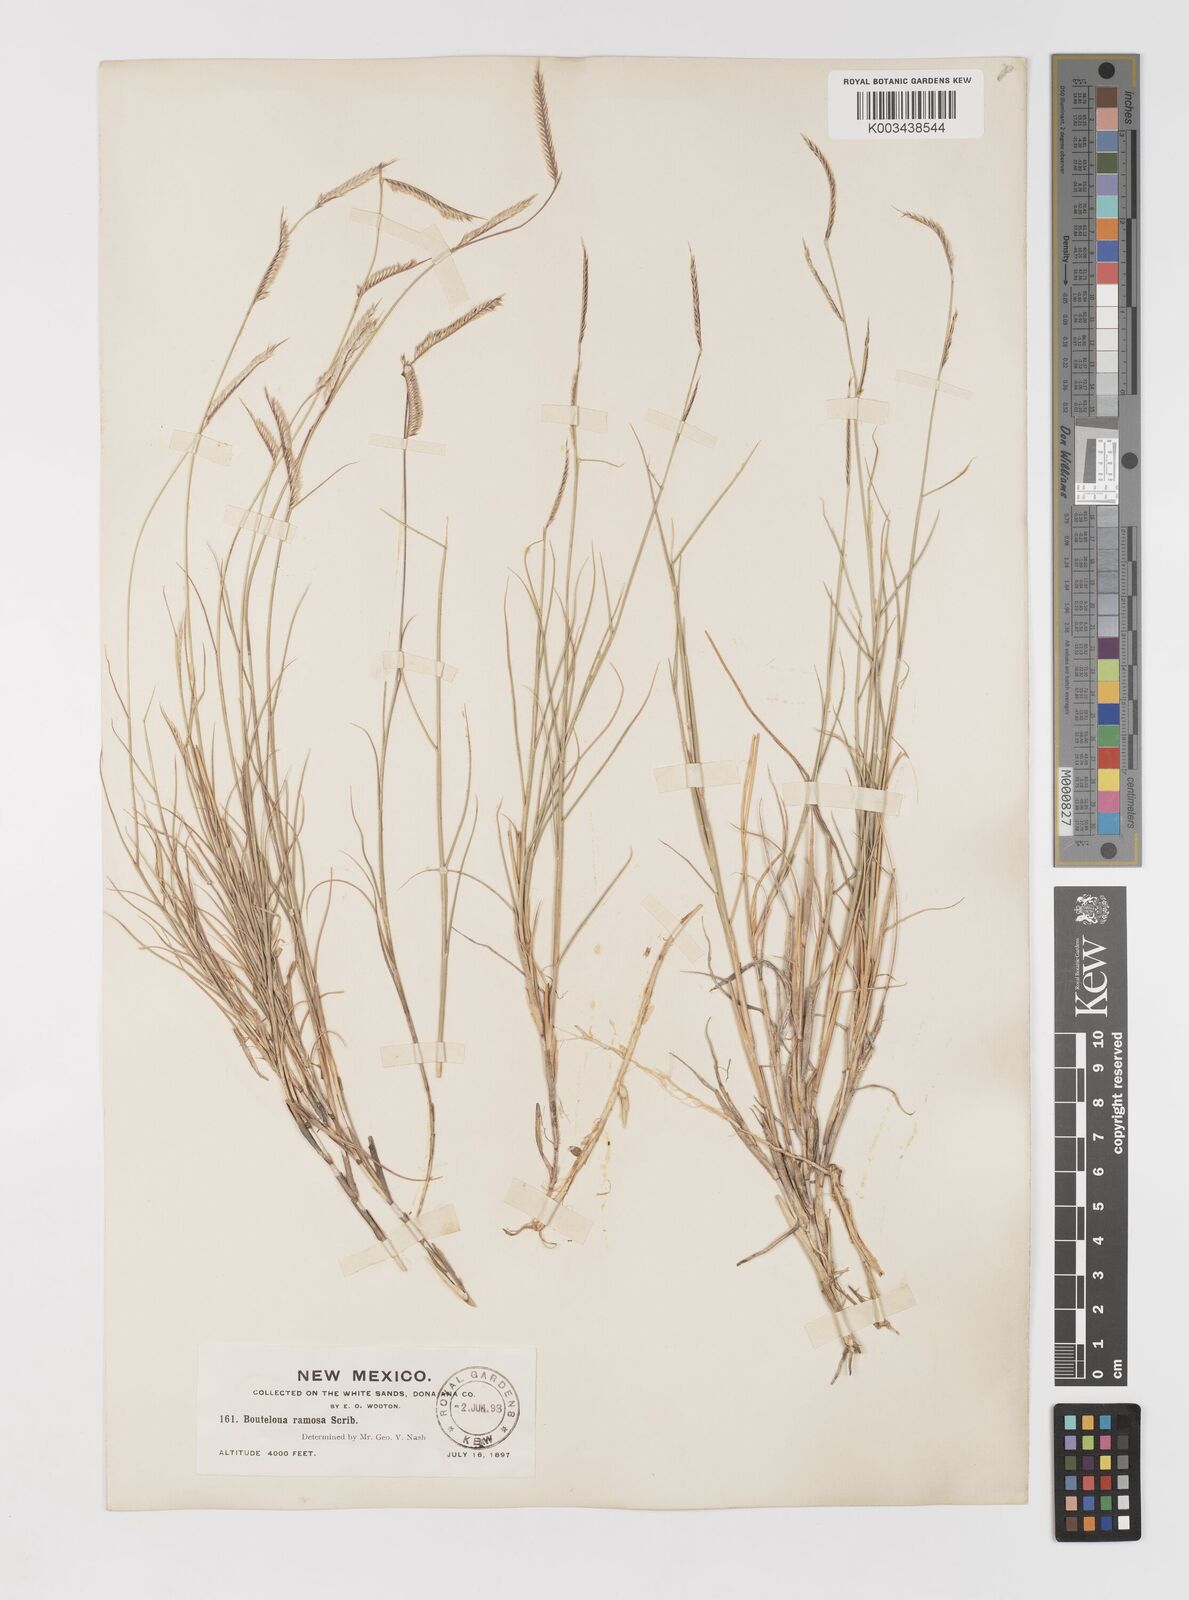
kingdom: Plantae
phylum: Tracheophyta
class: Liliopsida
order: Poales
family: Poaceae
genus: Bouteloua
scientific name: Bouteloua breviseta
